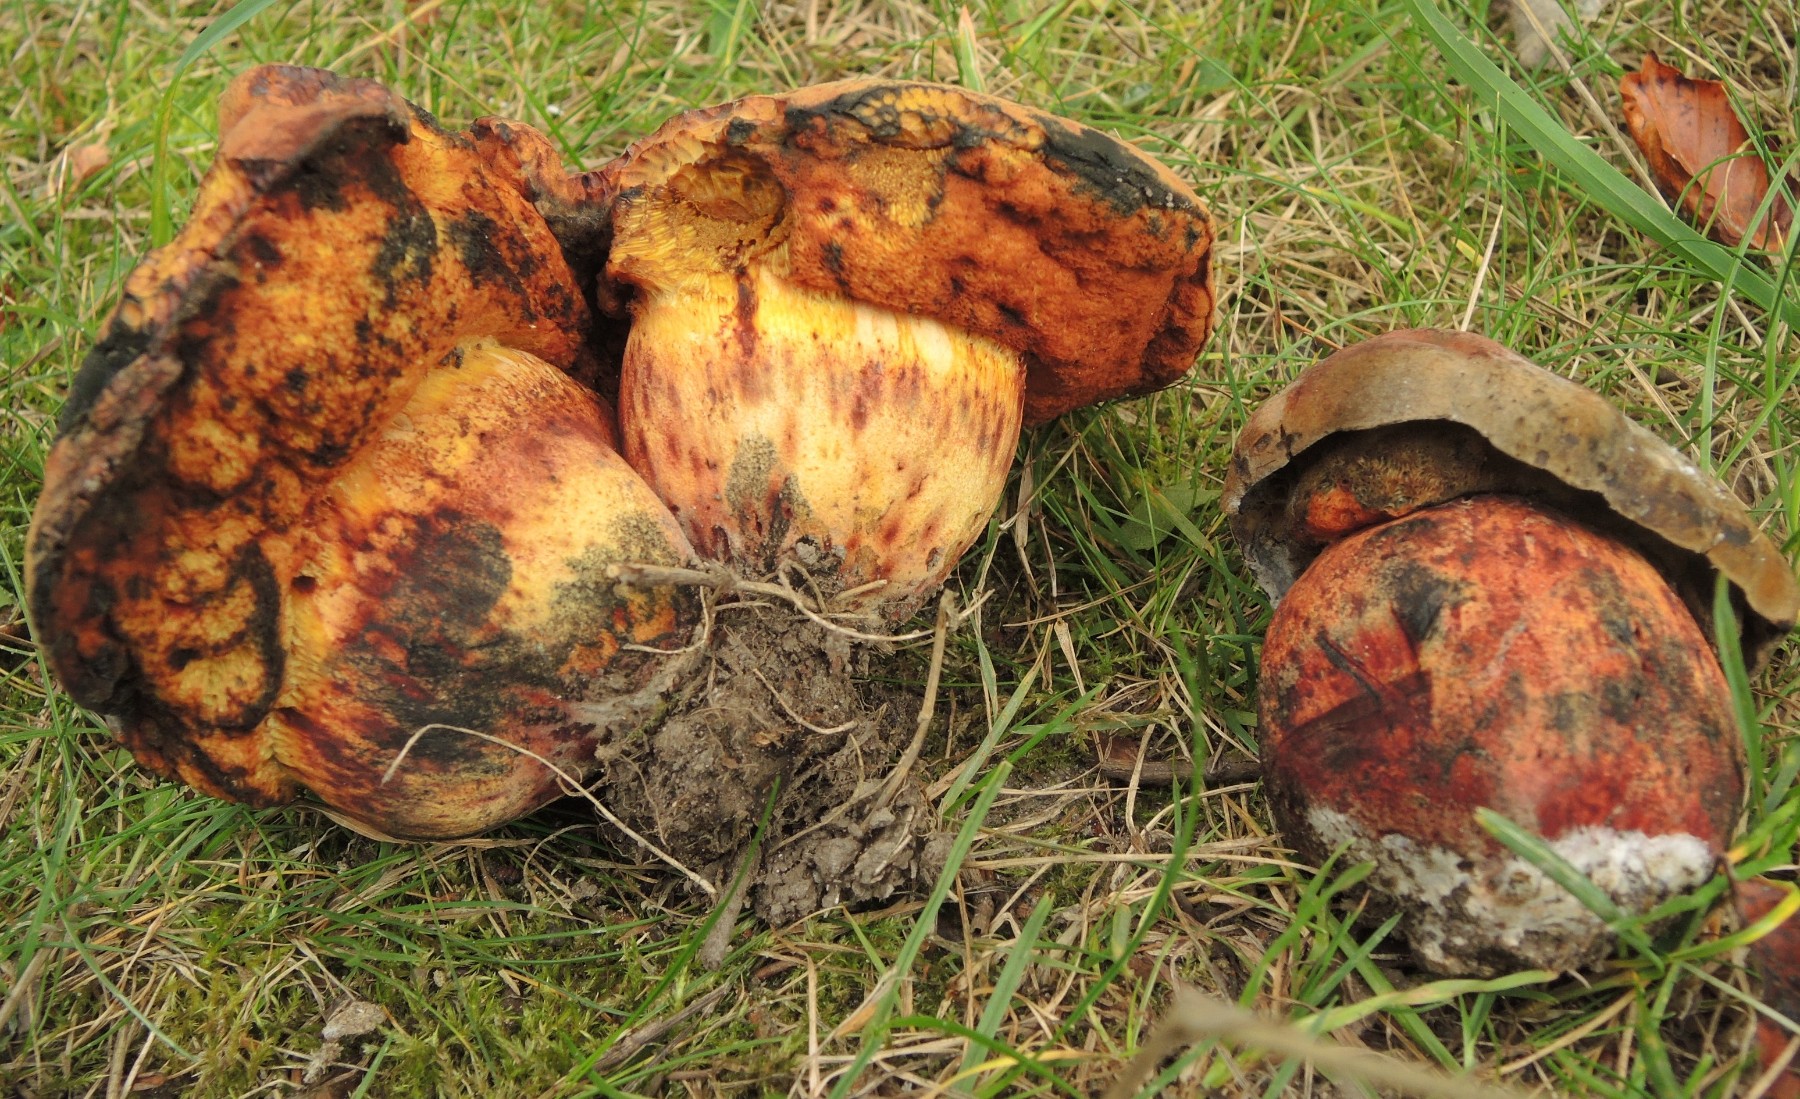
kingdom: Fungi
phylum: Basidiomycota
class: Agaricomycetes
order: Boletales
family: Boletaceae
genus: Suillellus
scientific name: Suillellus queletii
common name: glatstokket indigorørhat
